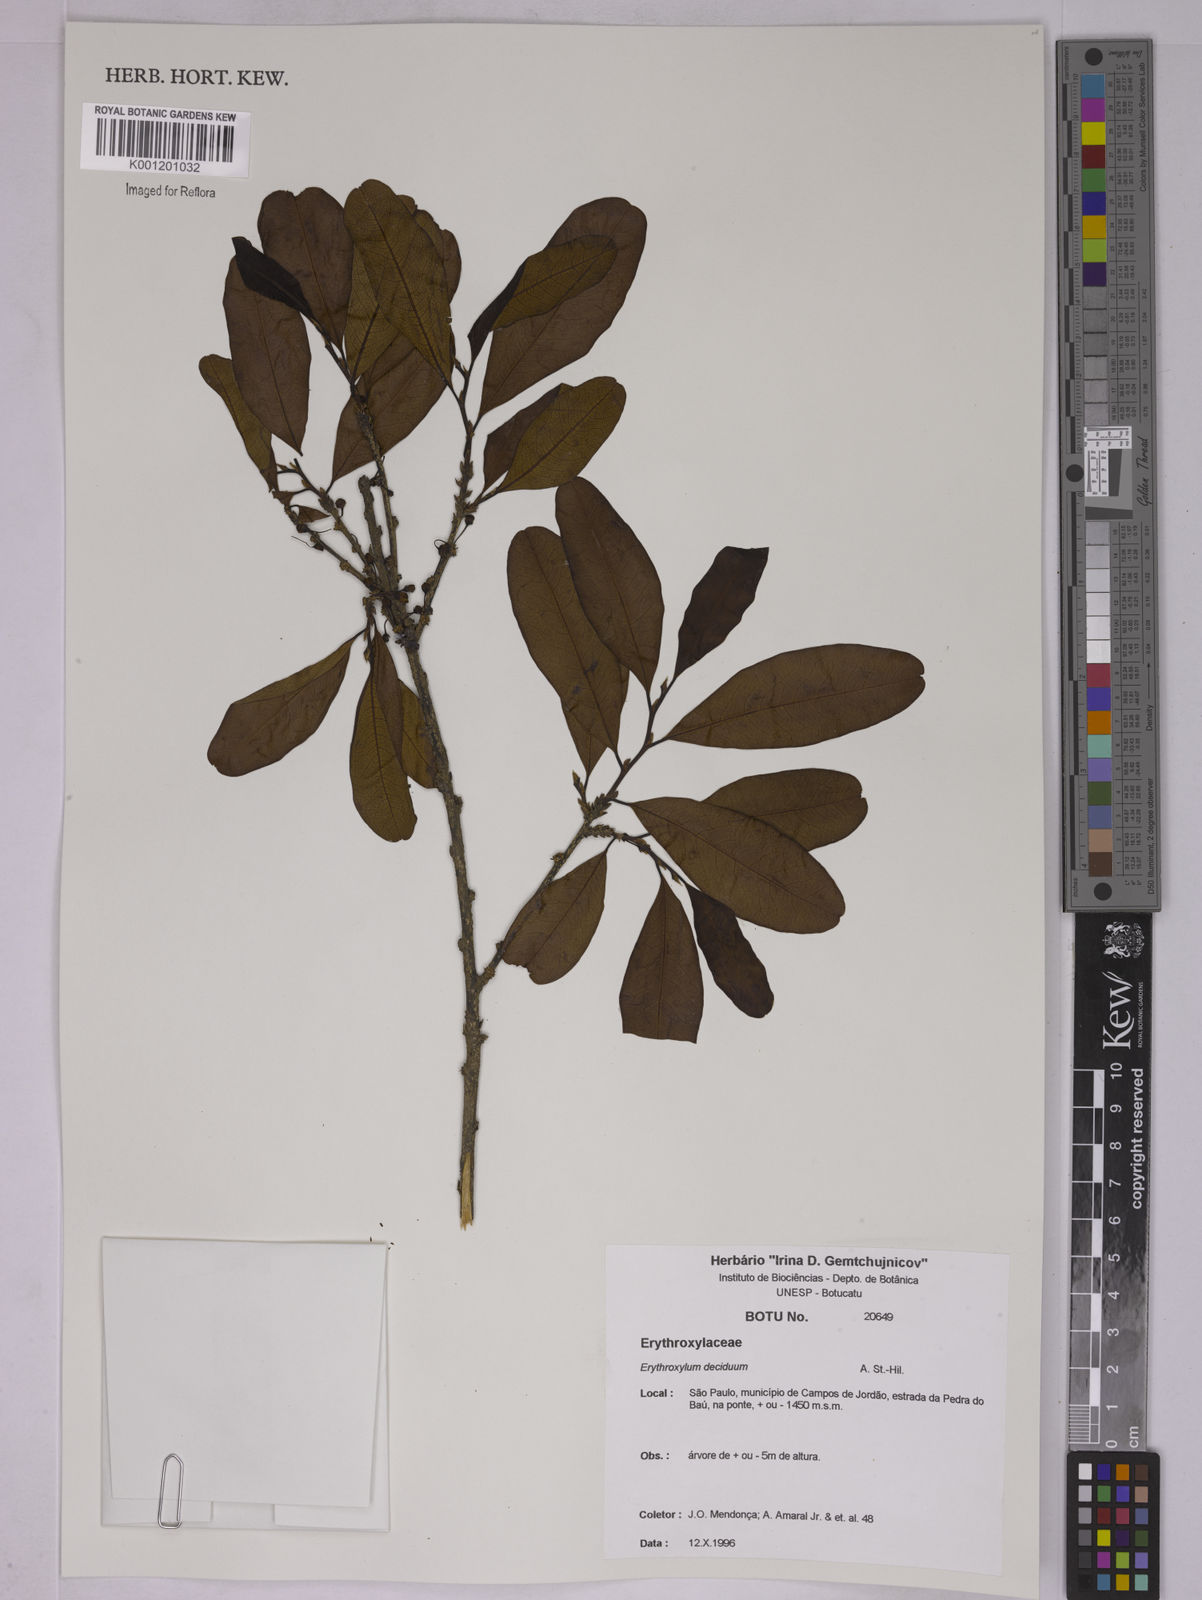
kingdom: Plantae
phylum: Tracheophyta
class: Magnoliopsida
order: Malpighiales
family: Erythroxylaceae
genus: Erythroxylum
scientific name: Erythroxylum deciduum
